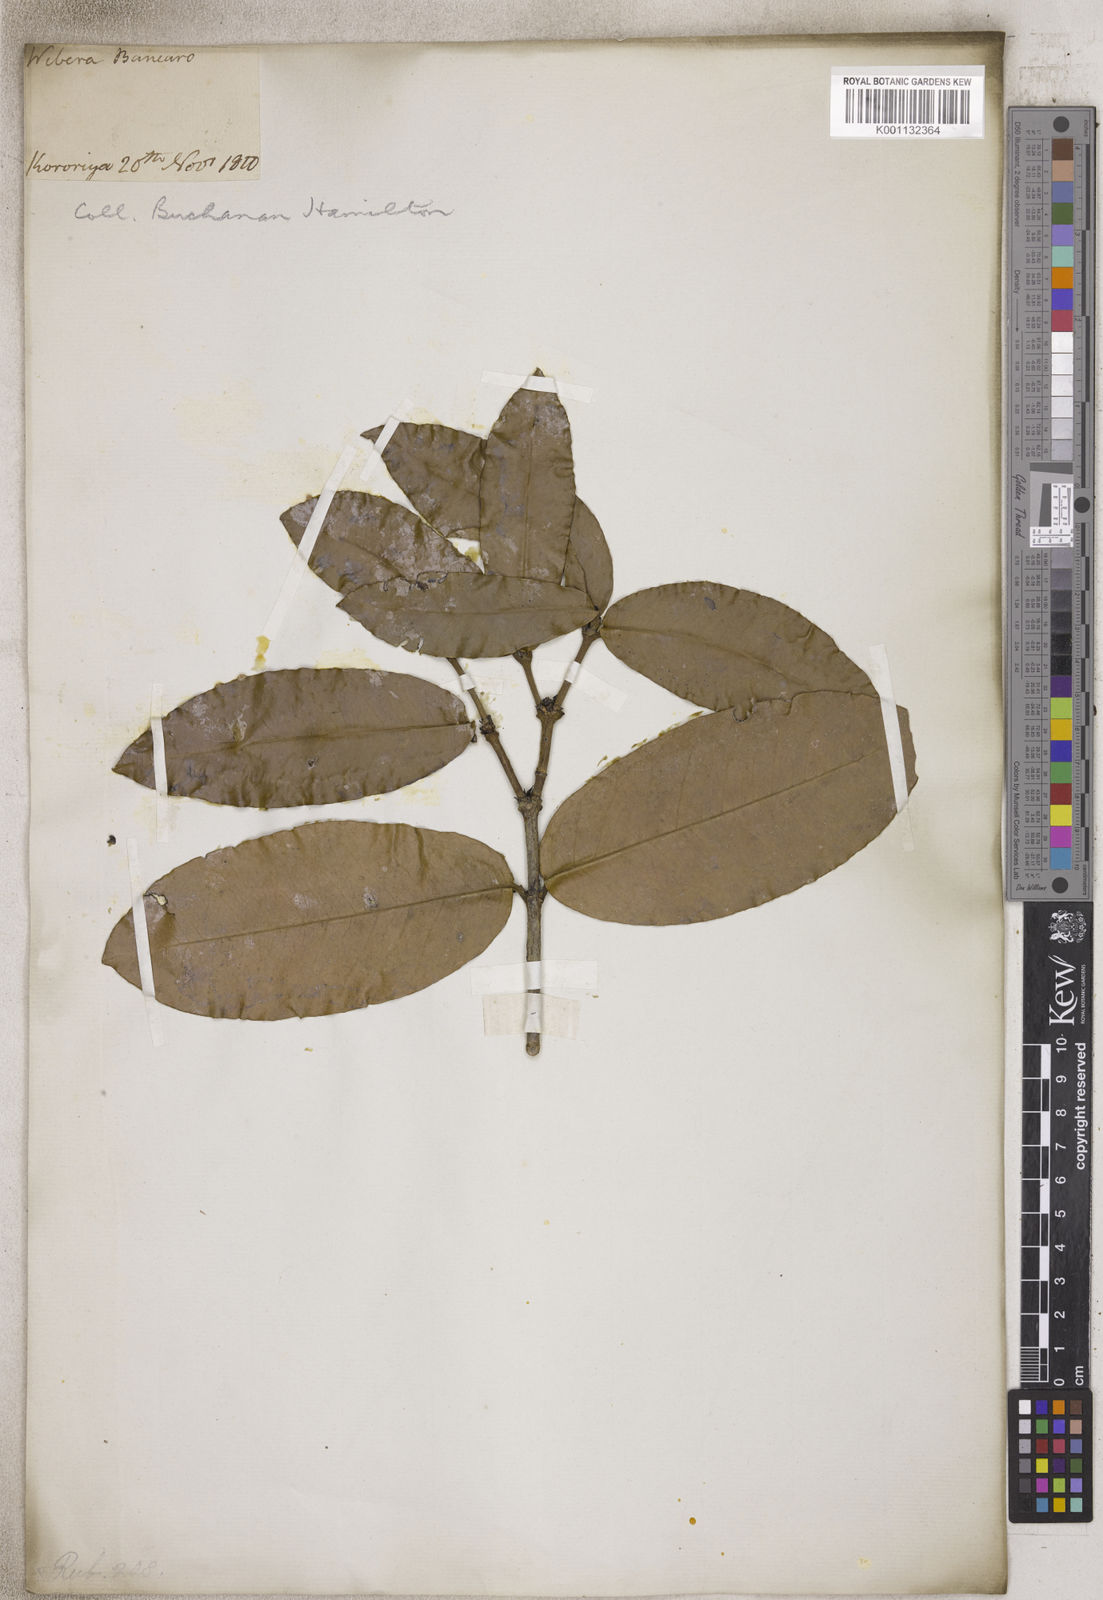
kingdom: Plantae
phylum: Tracheophyta
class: Magnoliopsida
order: Gentianales
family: Rubiaceae
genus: Webera
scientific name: Webera
